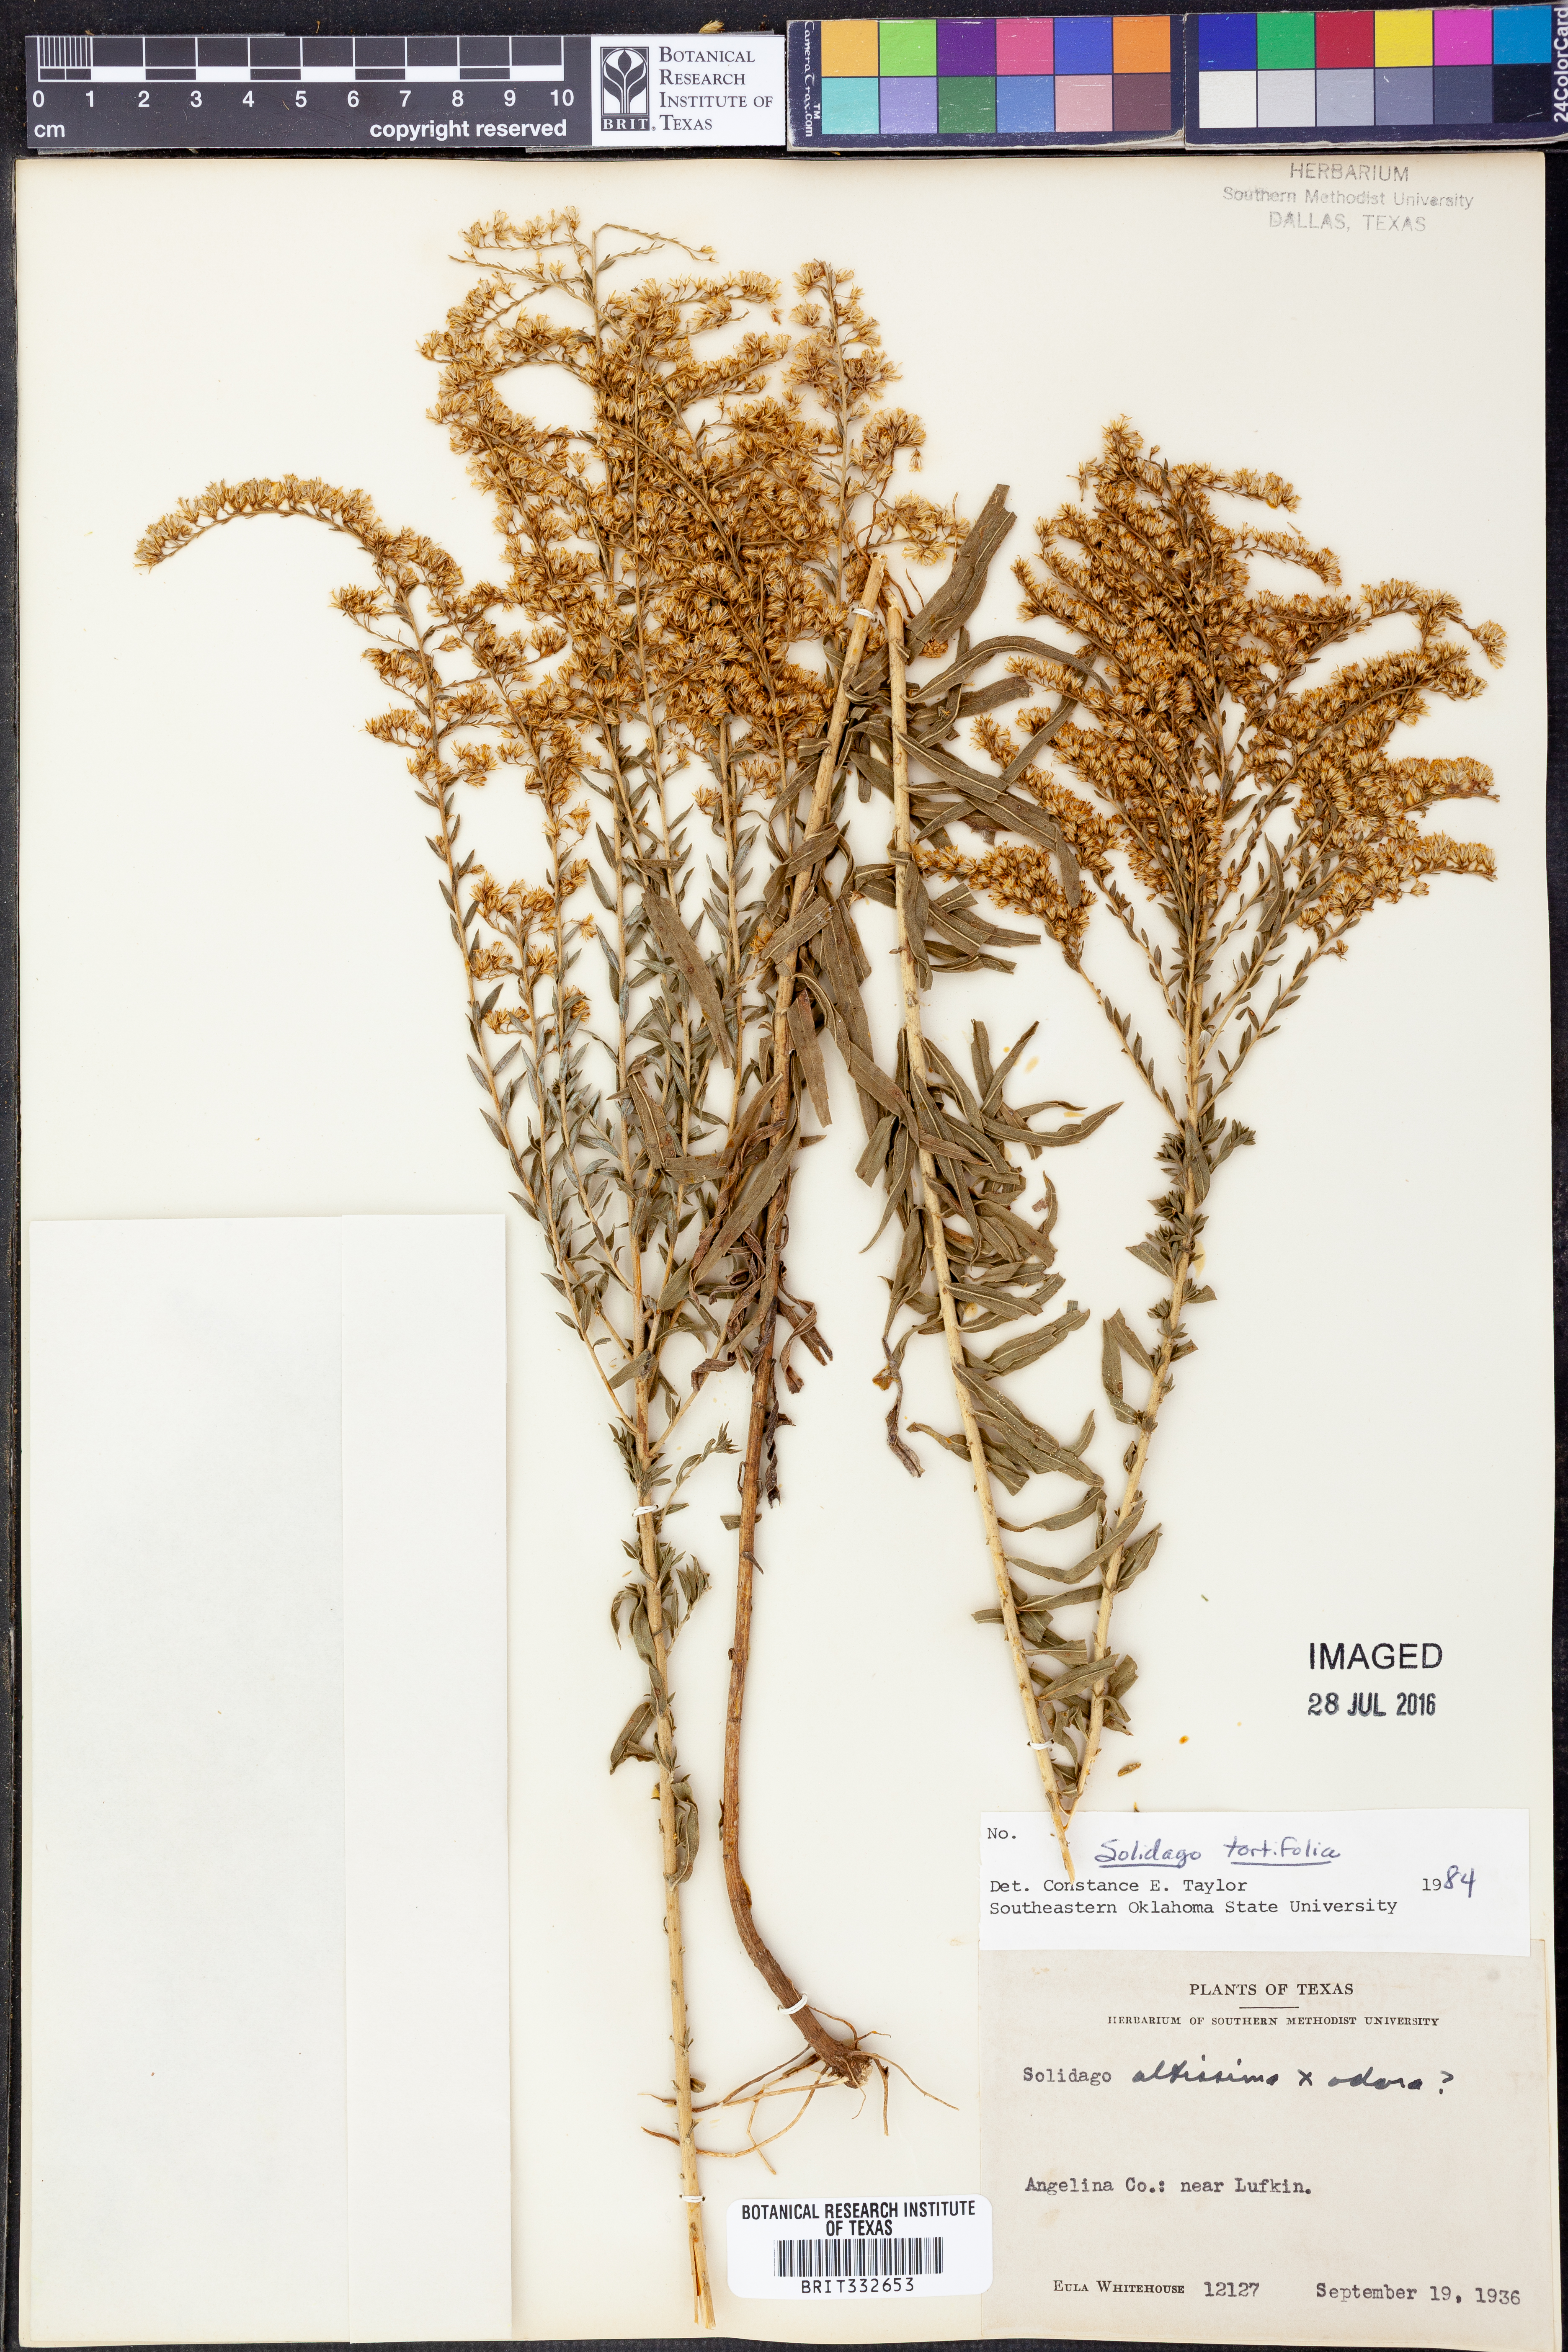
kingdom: Plantae
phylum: Tracheophyta
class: Magnoliopsida
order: Asterales
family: Asteraceae
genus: Solidago
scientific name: Solidago tortifolia
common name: Twisted-leaf goldenrod
